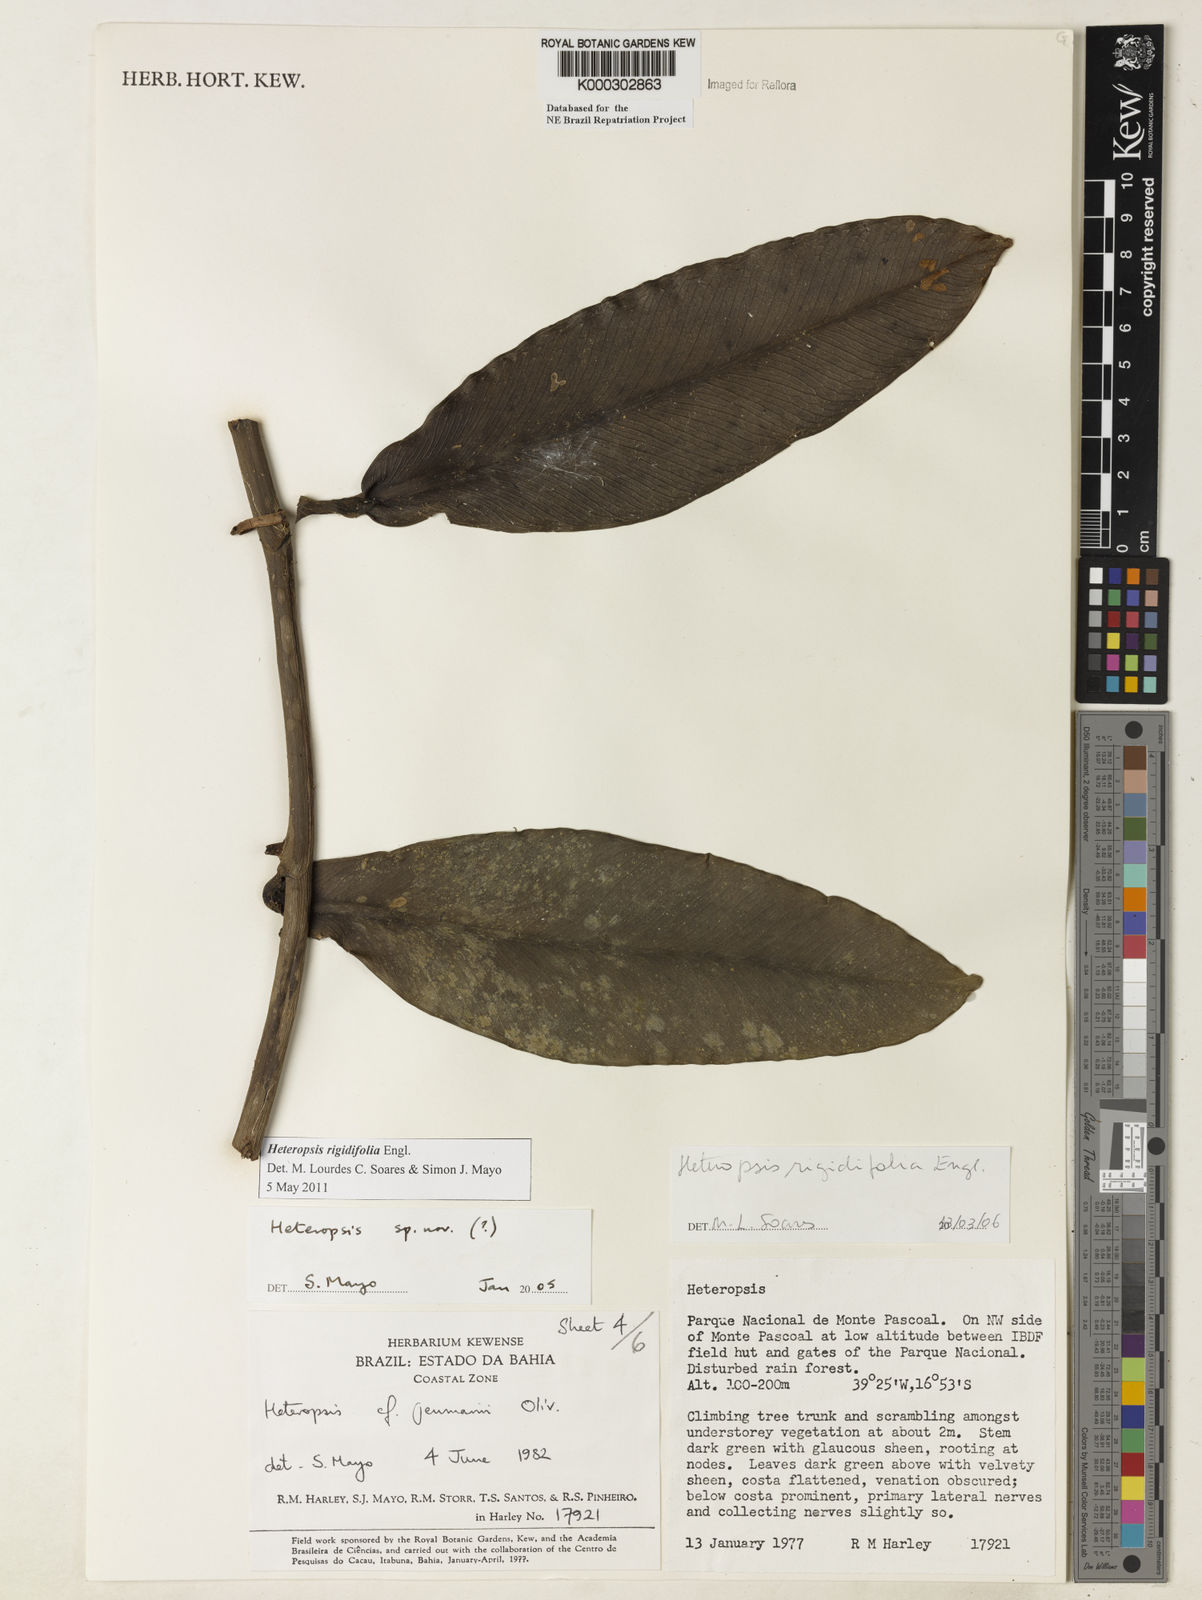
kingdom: Plantae
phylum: Tracheophyta
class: Liliopsida
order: Alismatales
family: Araceae
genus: Heteropsis
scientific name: Heteropsis
